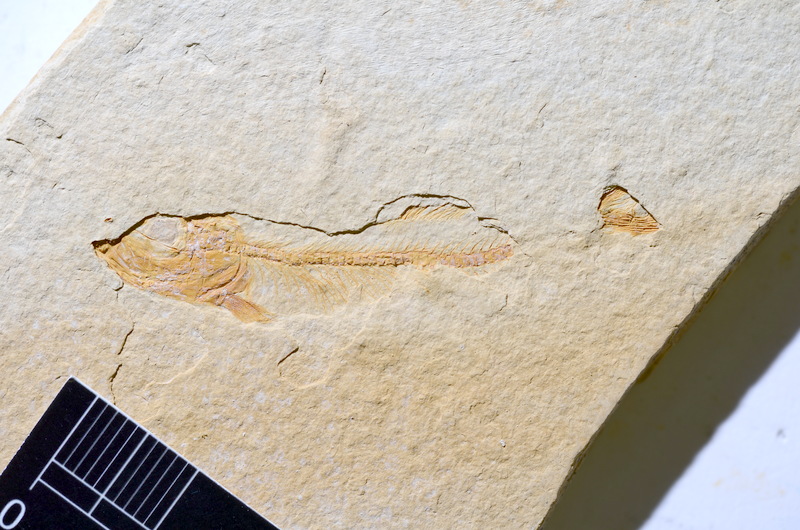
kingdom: Animalia
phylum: Chordata
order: Salmoniformes
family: Orthogonikleithridae
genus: Leptolepides
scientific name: Leptolepides
